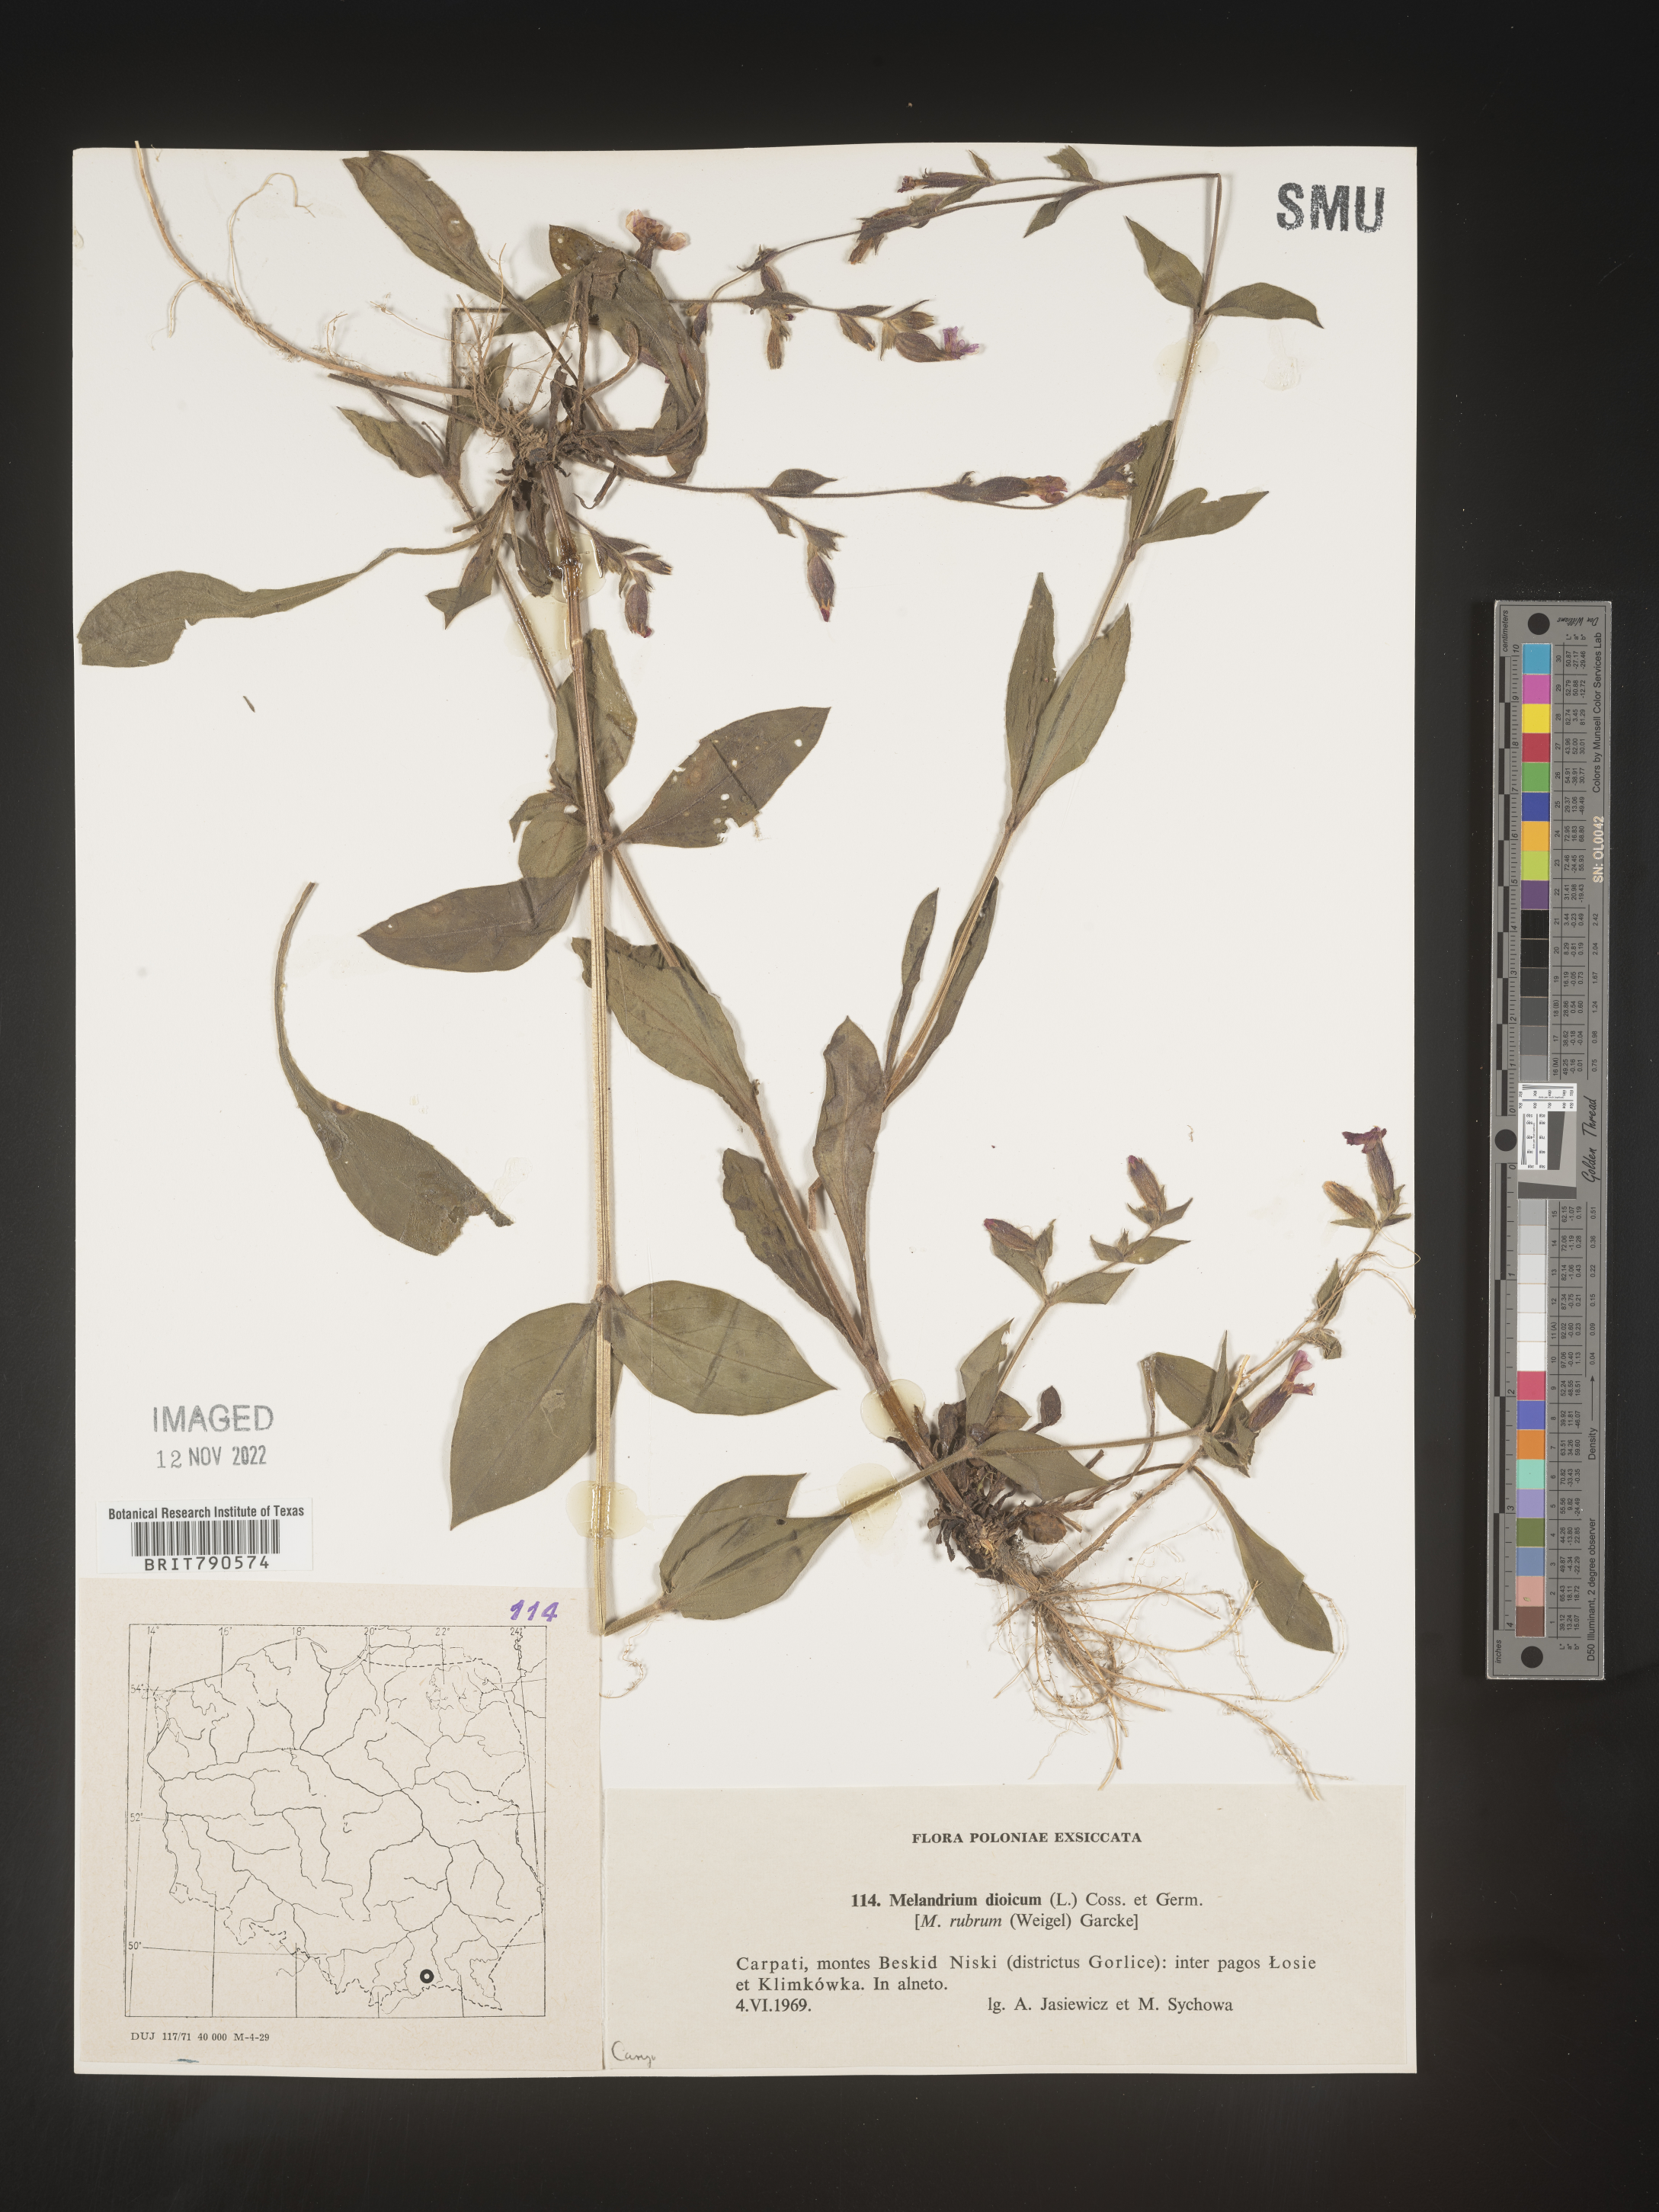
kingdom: Plantae
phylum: Tracheophyta
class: Magnoliopsida
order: Caryophyllales
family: Caryophyllaceae
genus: Silene
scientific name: Silene
